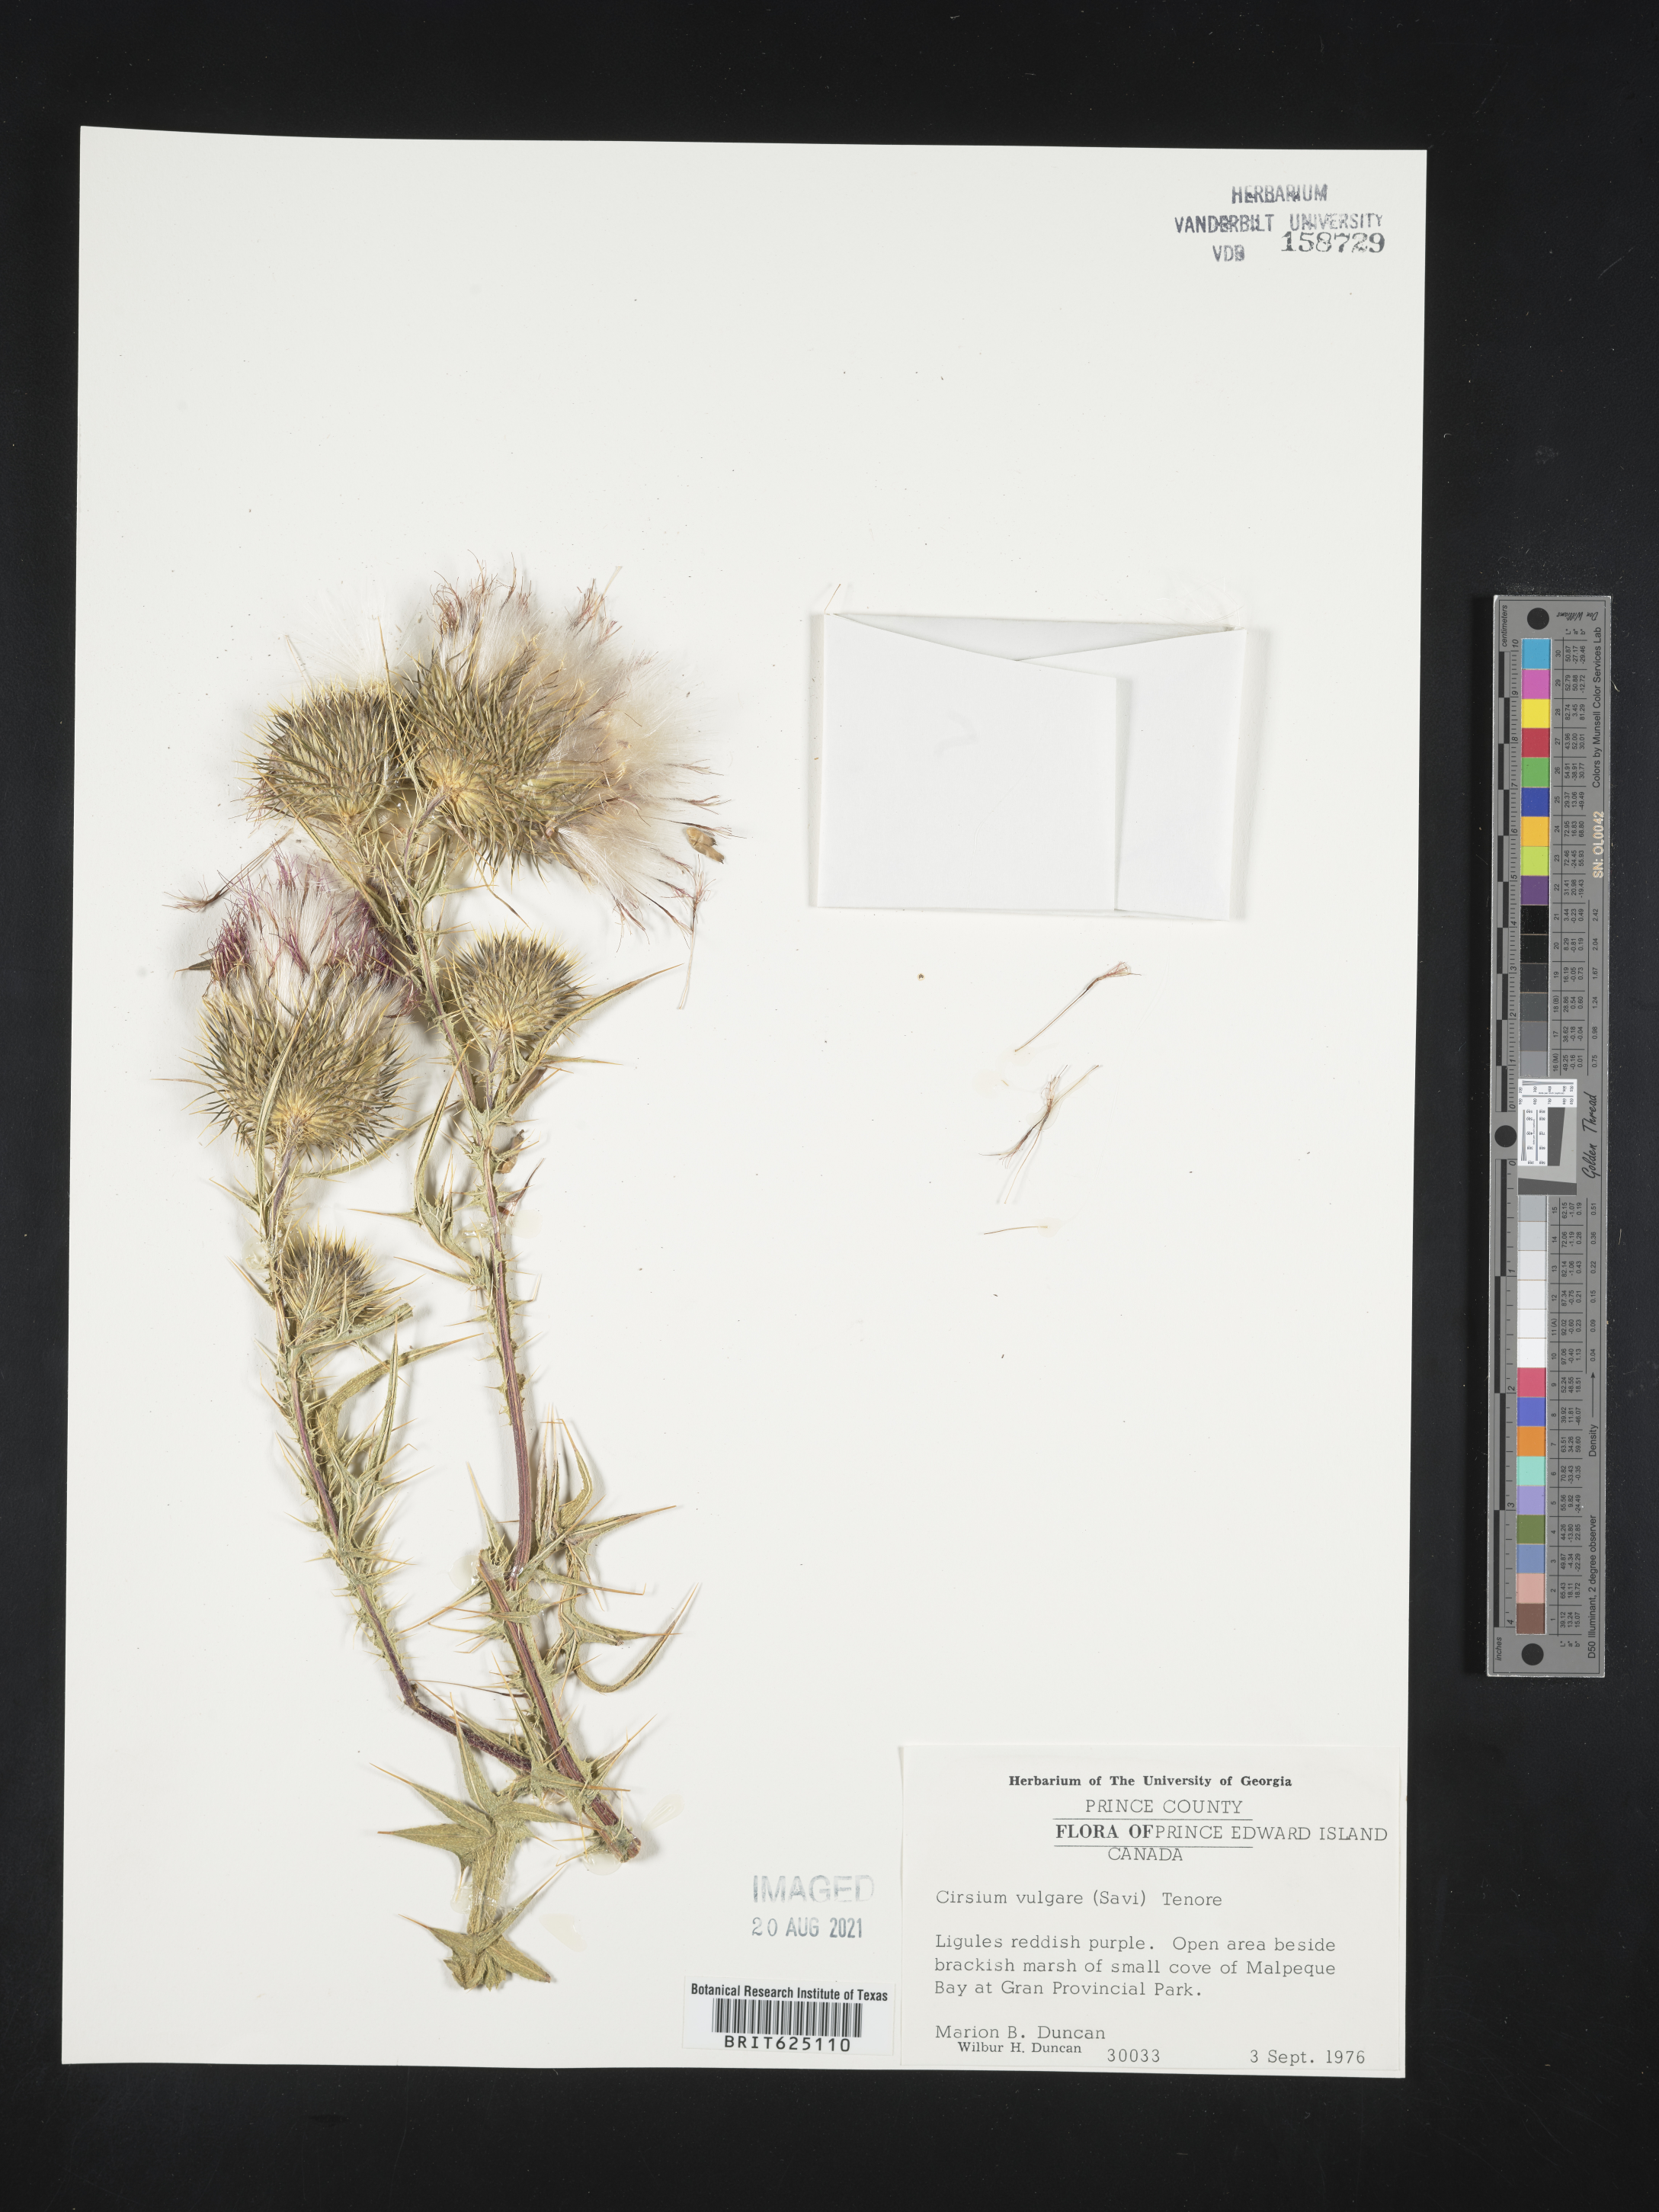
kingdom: Plantae
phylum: Tracheophyta
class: Magnoliopsida
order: Asterales
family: Asteraceae
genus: Cirsium
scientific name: Cirsium vulgare
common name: Bull thistle
